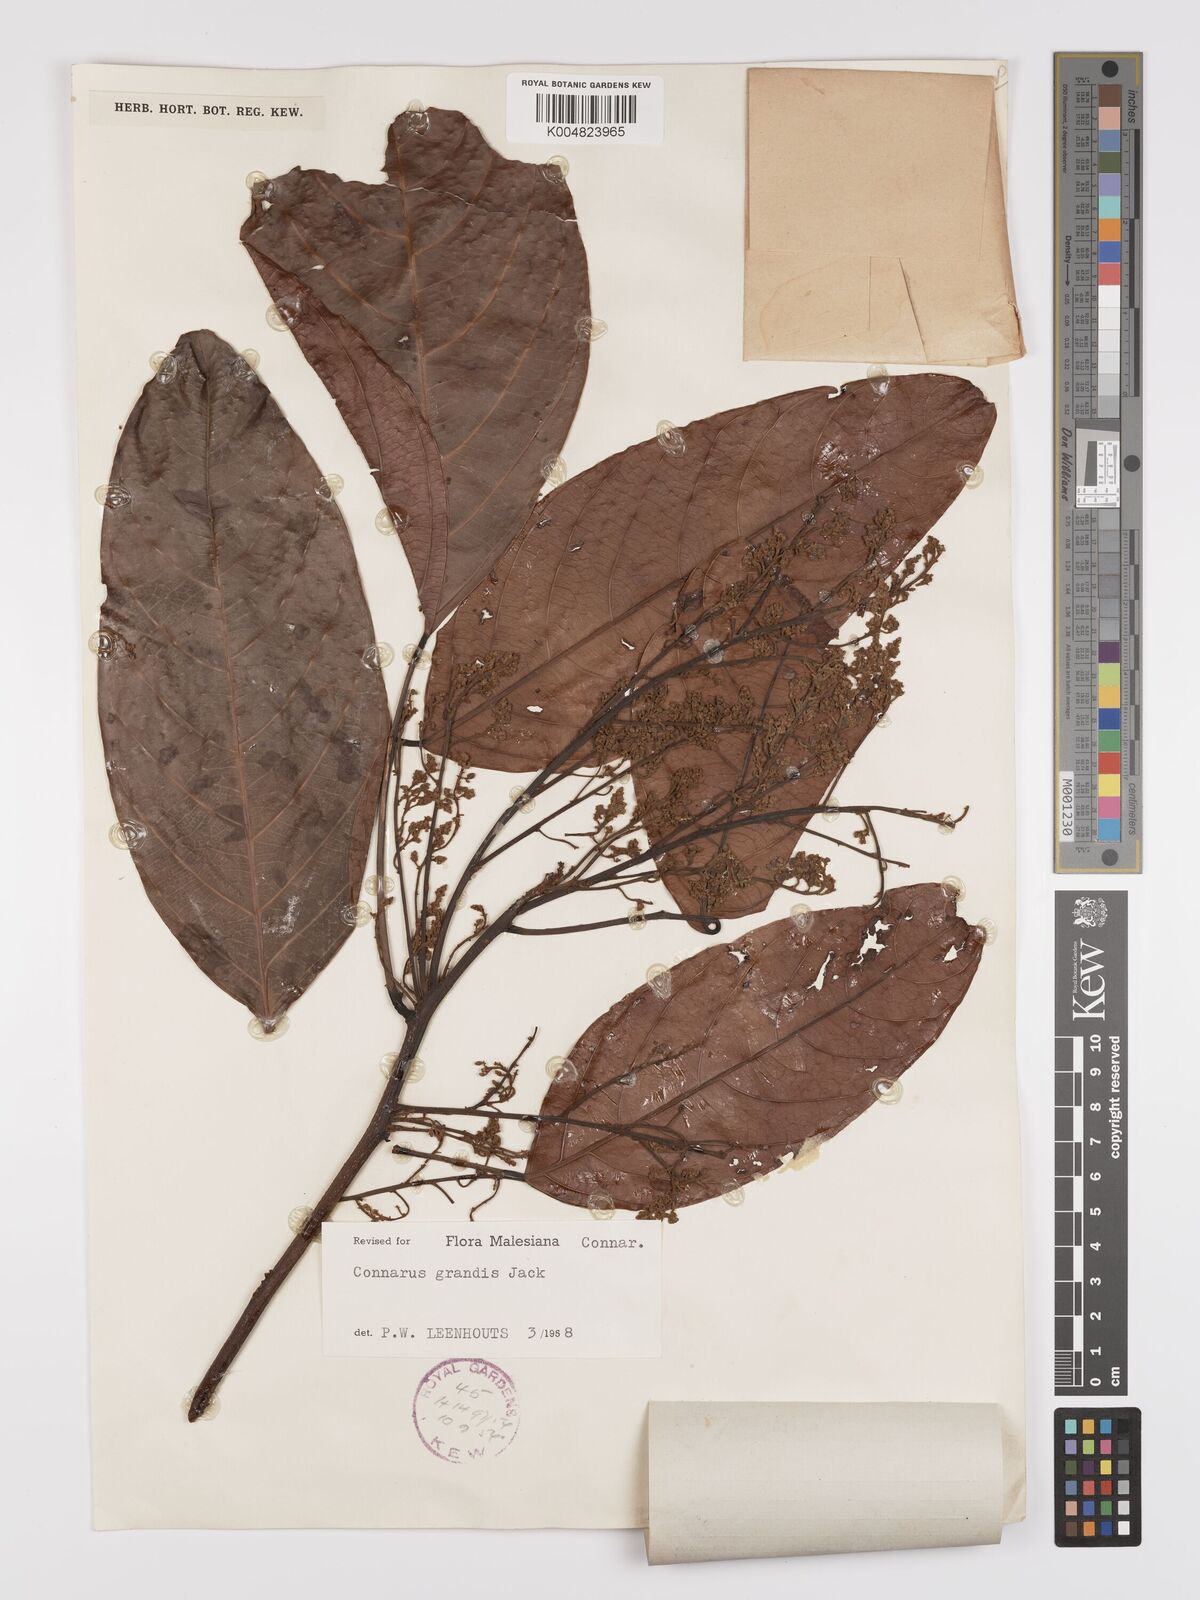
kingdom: Plantae
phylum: Tracheophyta
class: Magnoliopsida
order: Oxalidales
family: Connaraceae
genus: Connarus
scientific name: Connarus grandis
